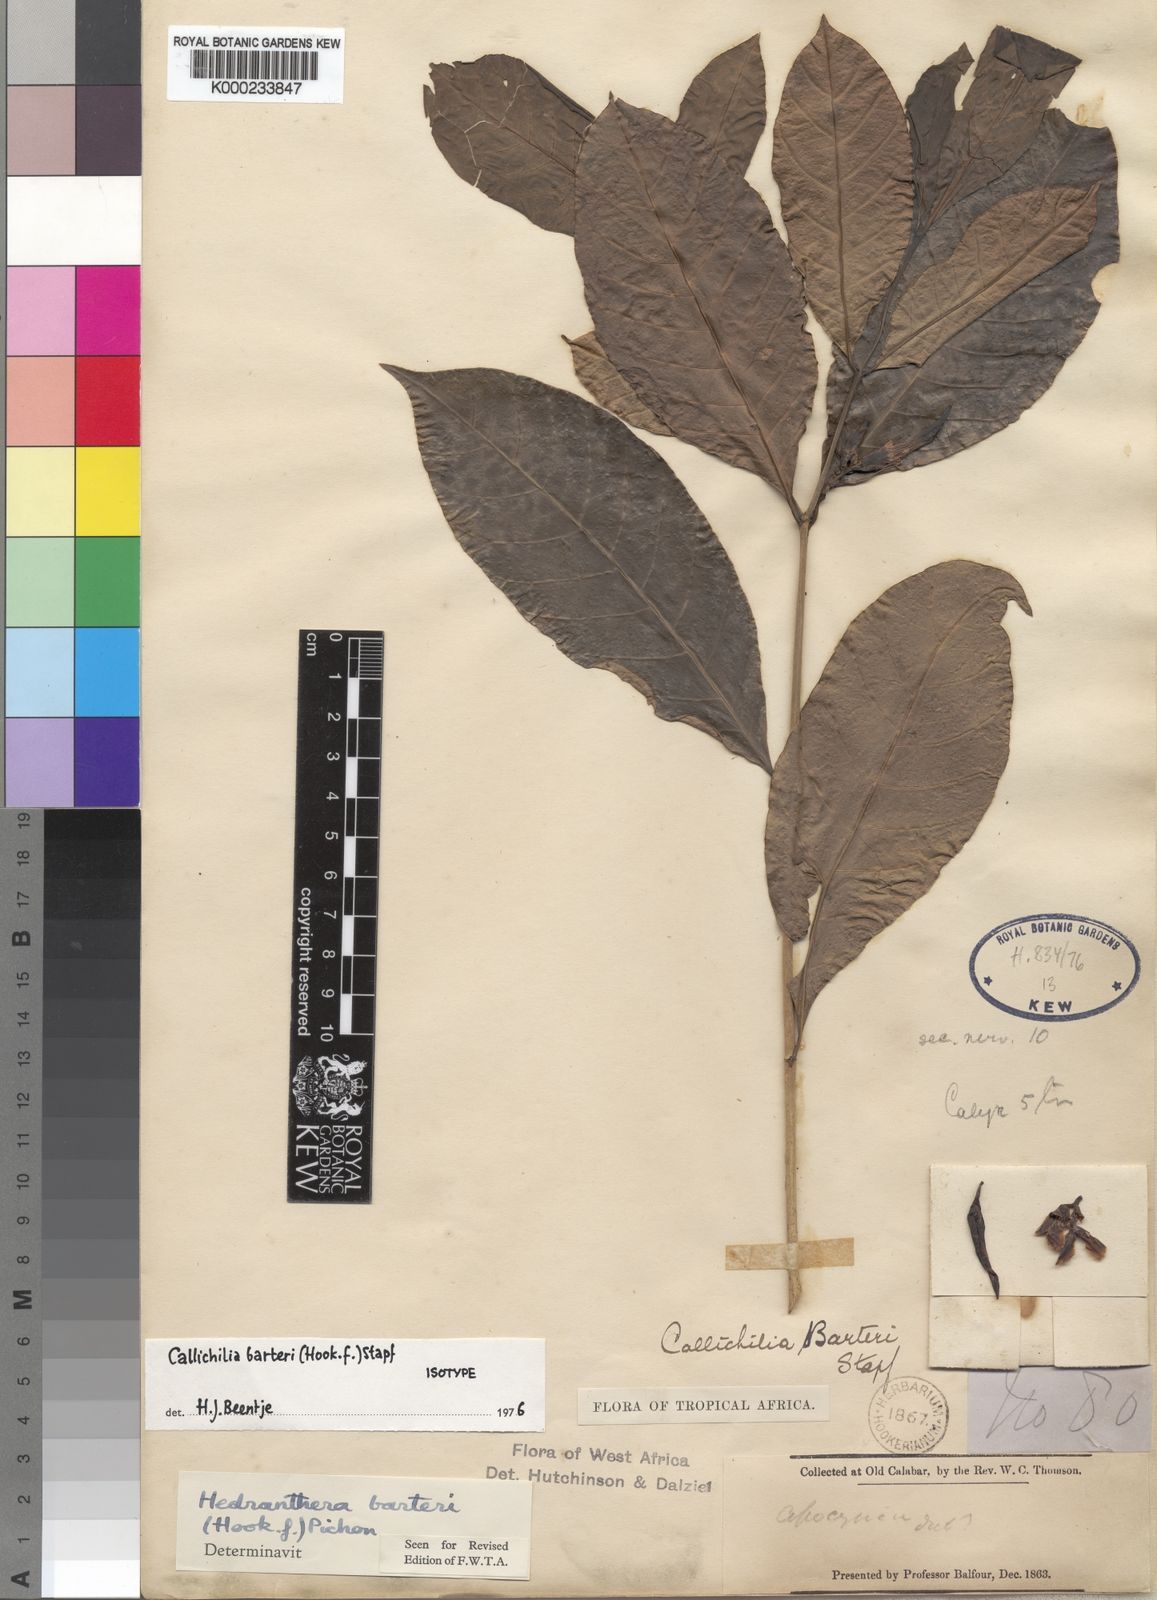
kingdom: Plantae
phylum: Tracheophyta
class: Magnoliopsida
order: Gentianales
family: Apocynaceae
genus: Callichilia
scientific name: Callichilia barteri
